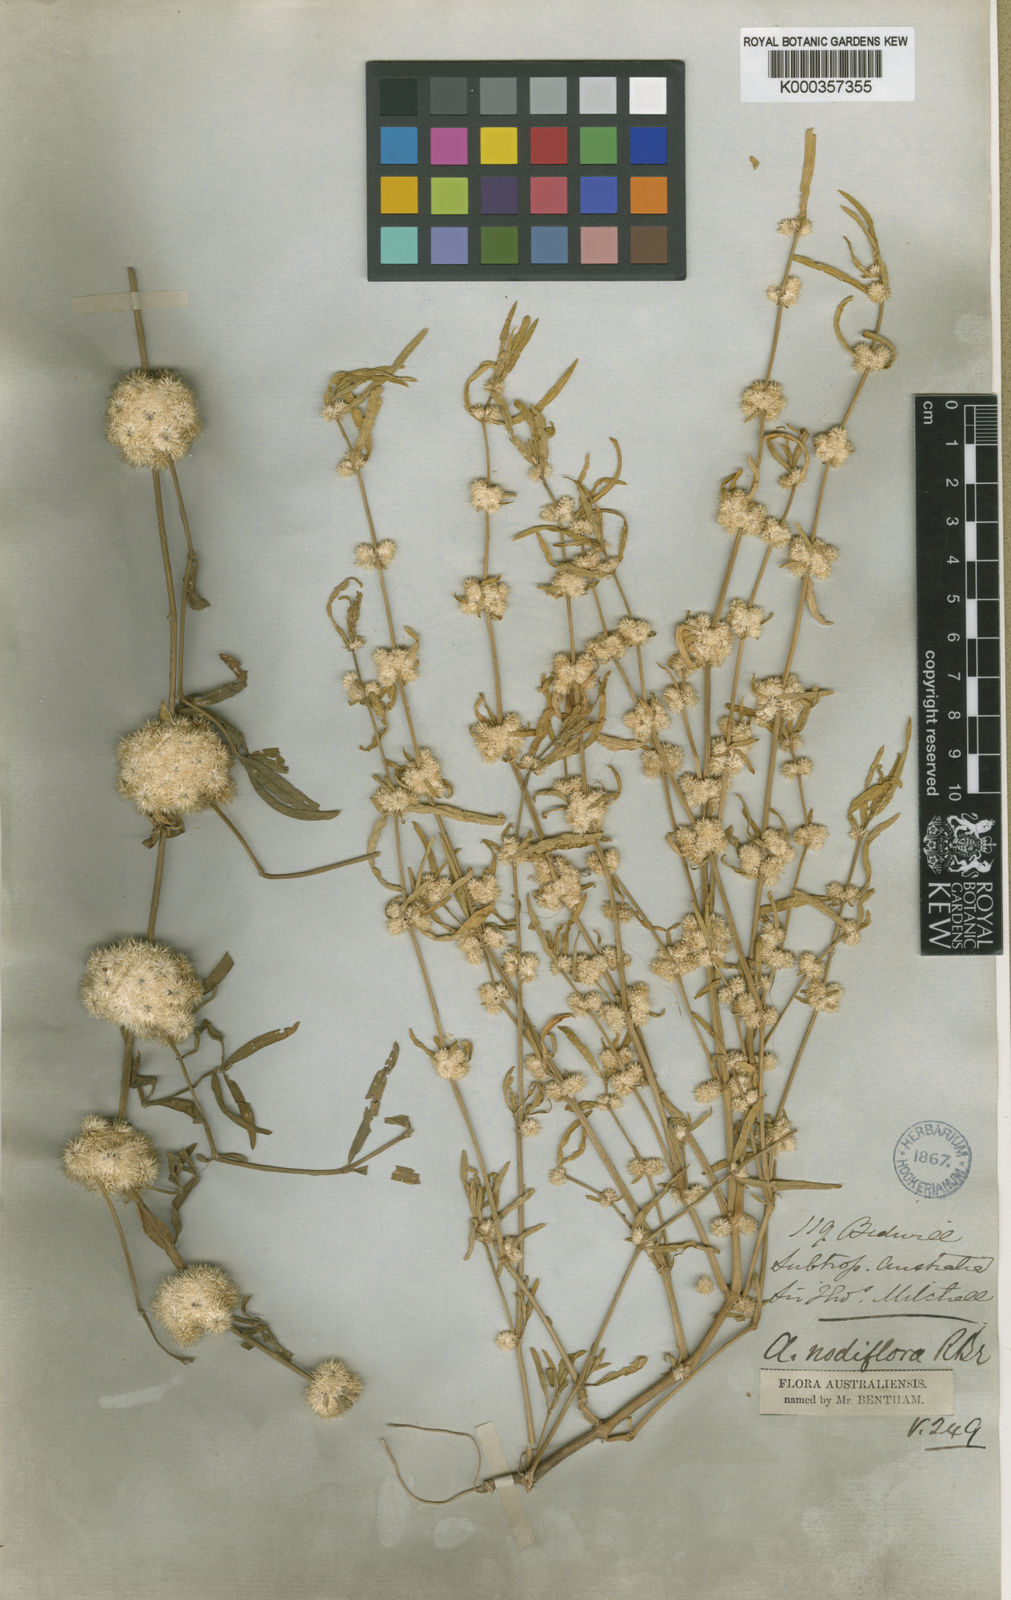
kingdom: Plantae
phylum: Tracheophyta
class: Magnoliopsida
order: Caryophyllales
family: Amaranthaceae
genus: Alternanthera
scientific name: Alternanthera sessilis
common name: Sessile joyweed
